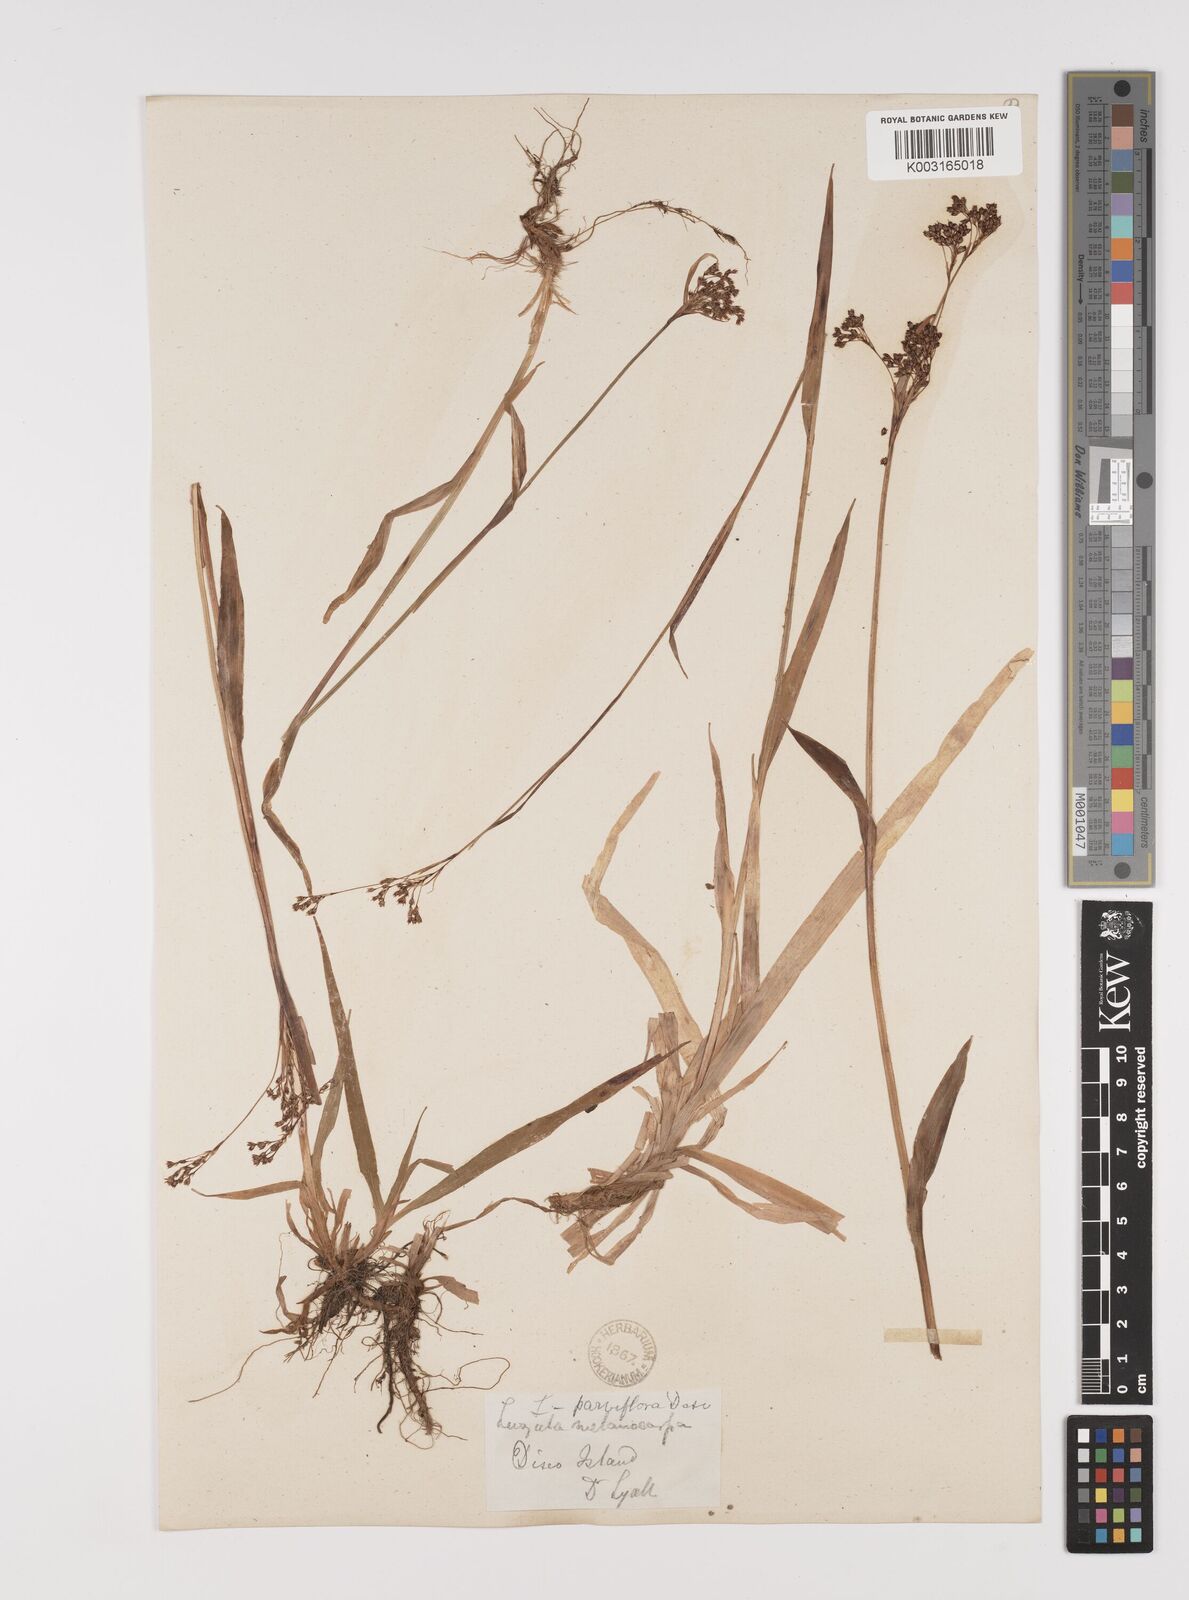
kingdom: Plantae
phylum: Tracheophyta
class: Liliopsida
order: Poales
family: Juncaceae
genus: Luzula
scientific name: Luzula parviflora
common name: Millet woodrush
